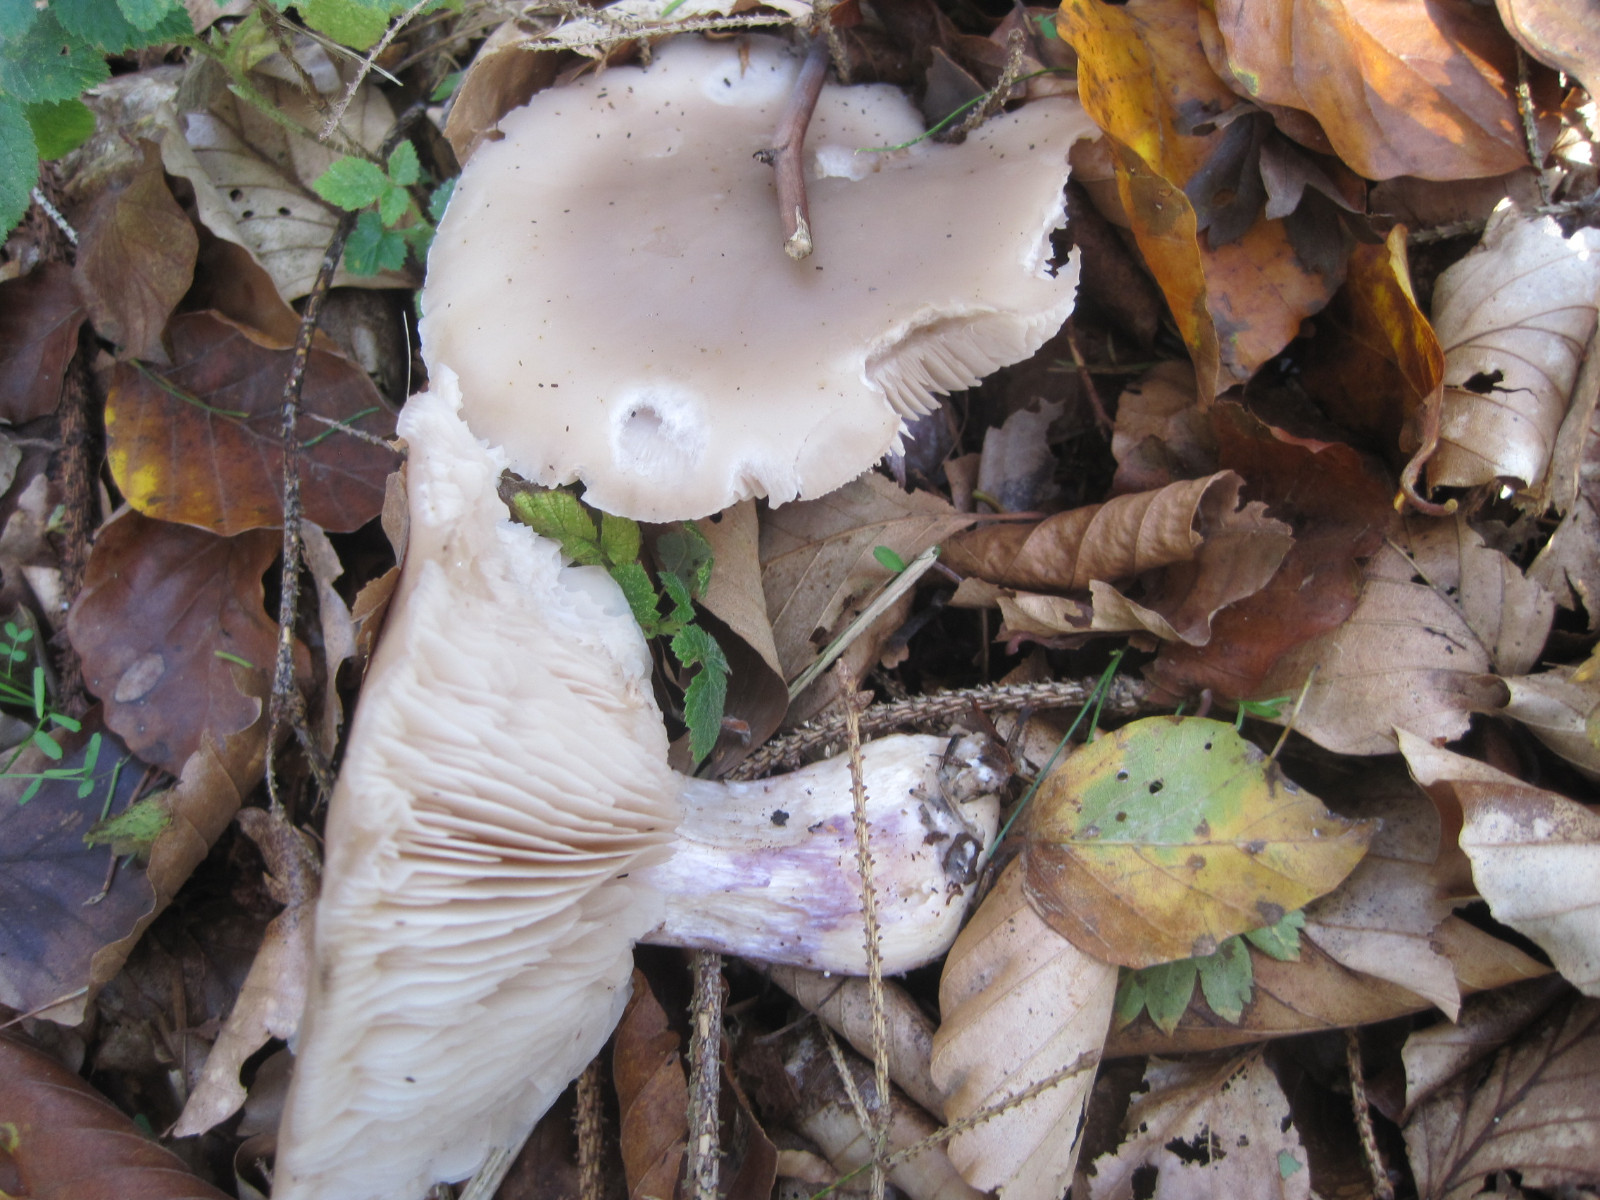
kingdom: Fungi
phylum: Basidiomycota
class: Agaricomycetes
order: Agaricales
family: Tricholomataceae
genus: Lepista
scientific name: Lepista personata
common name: bleg hekseringshat
